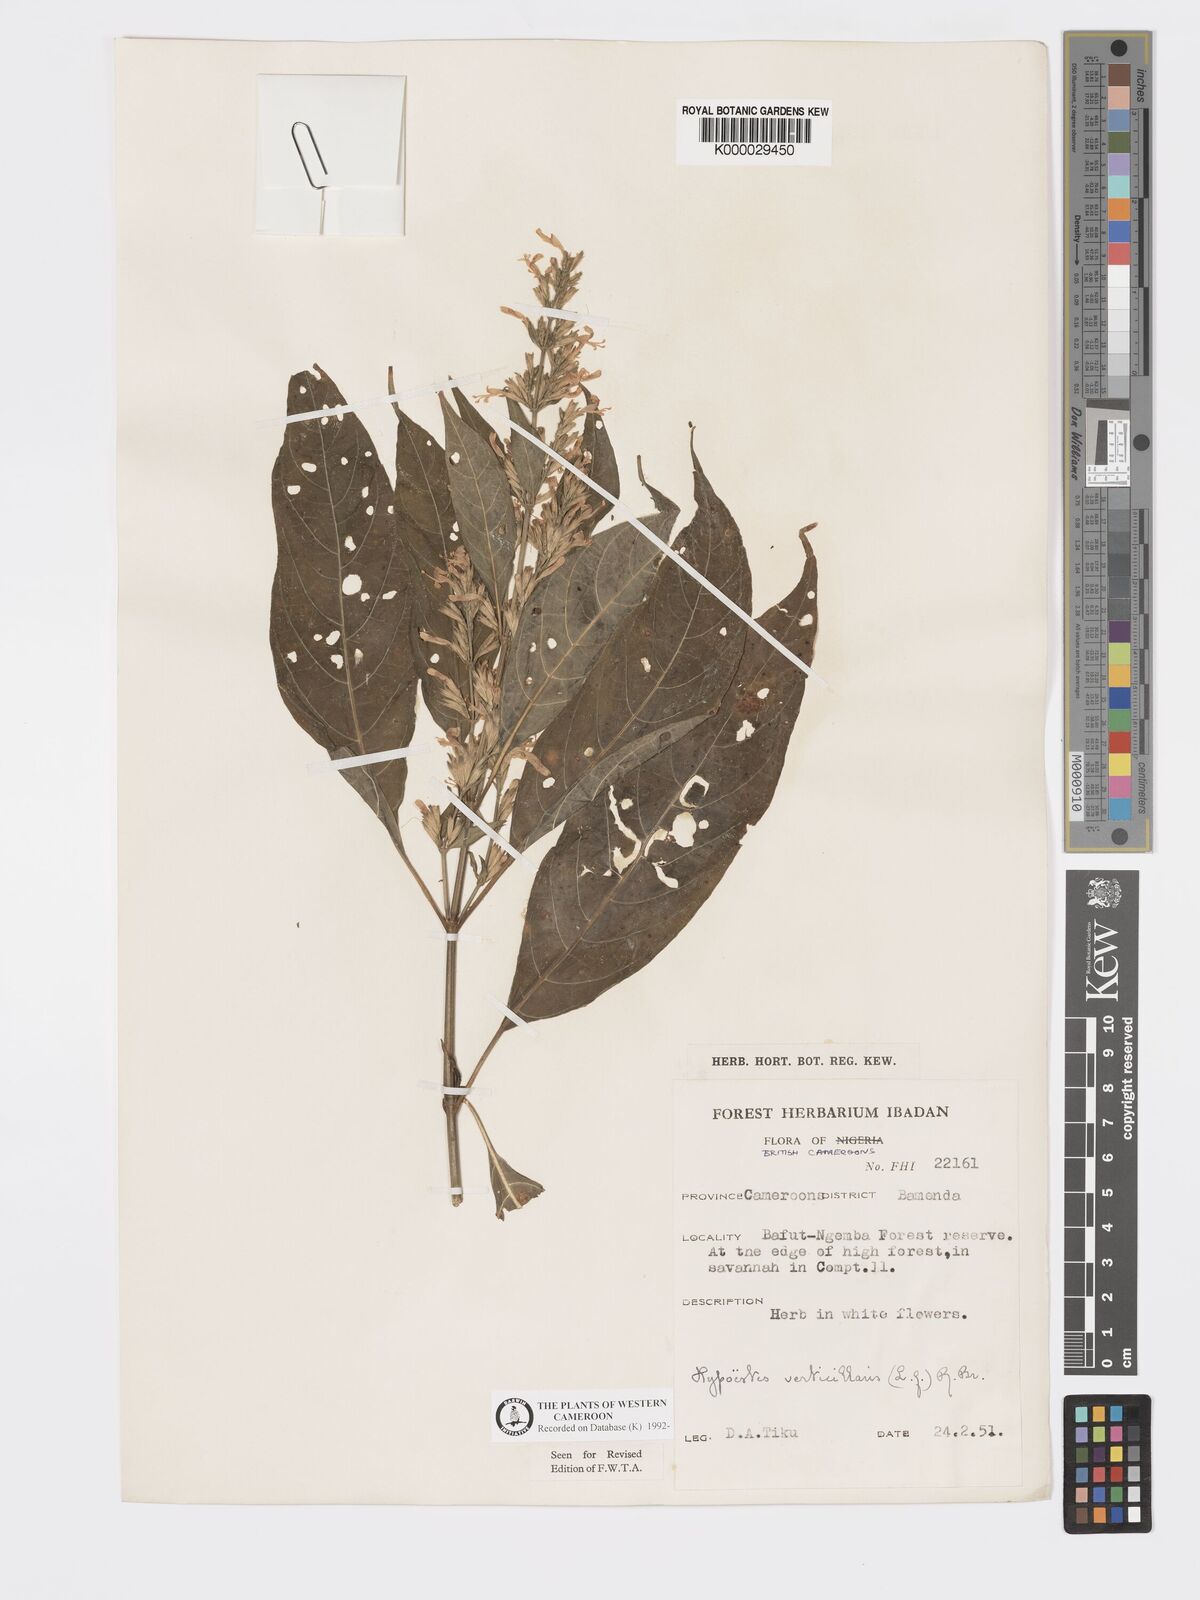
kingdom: Plantae
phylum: Tracheophyta
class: Magnoliopsida
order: Lamiales
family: Acanthaceae
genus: Hypoestes
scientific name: Hypoestes
